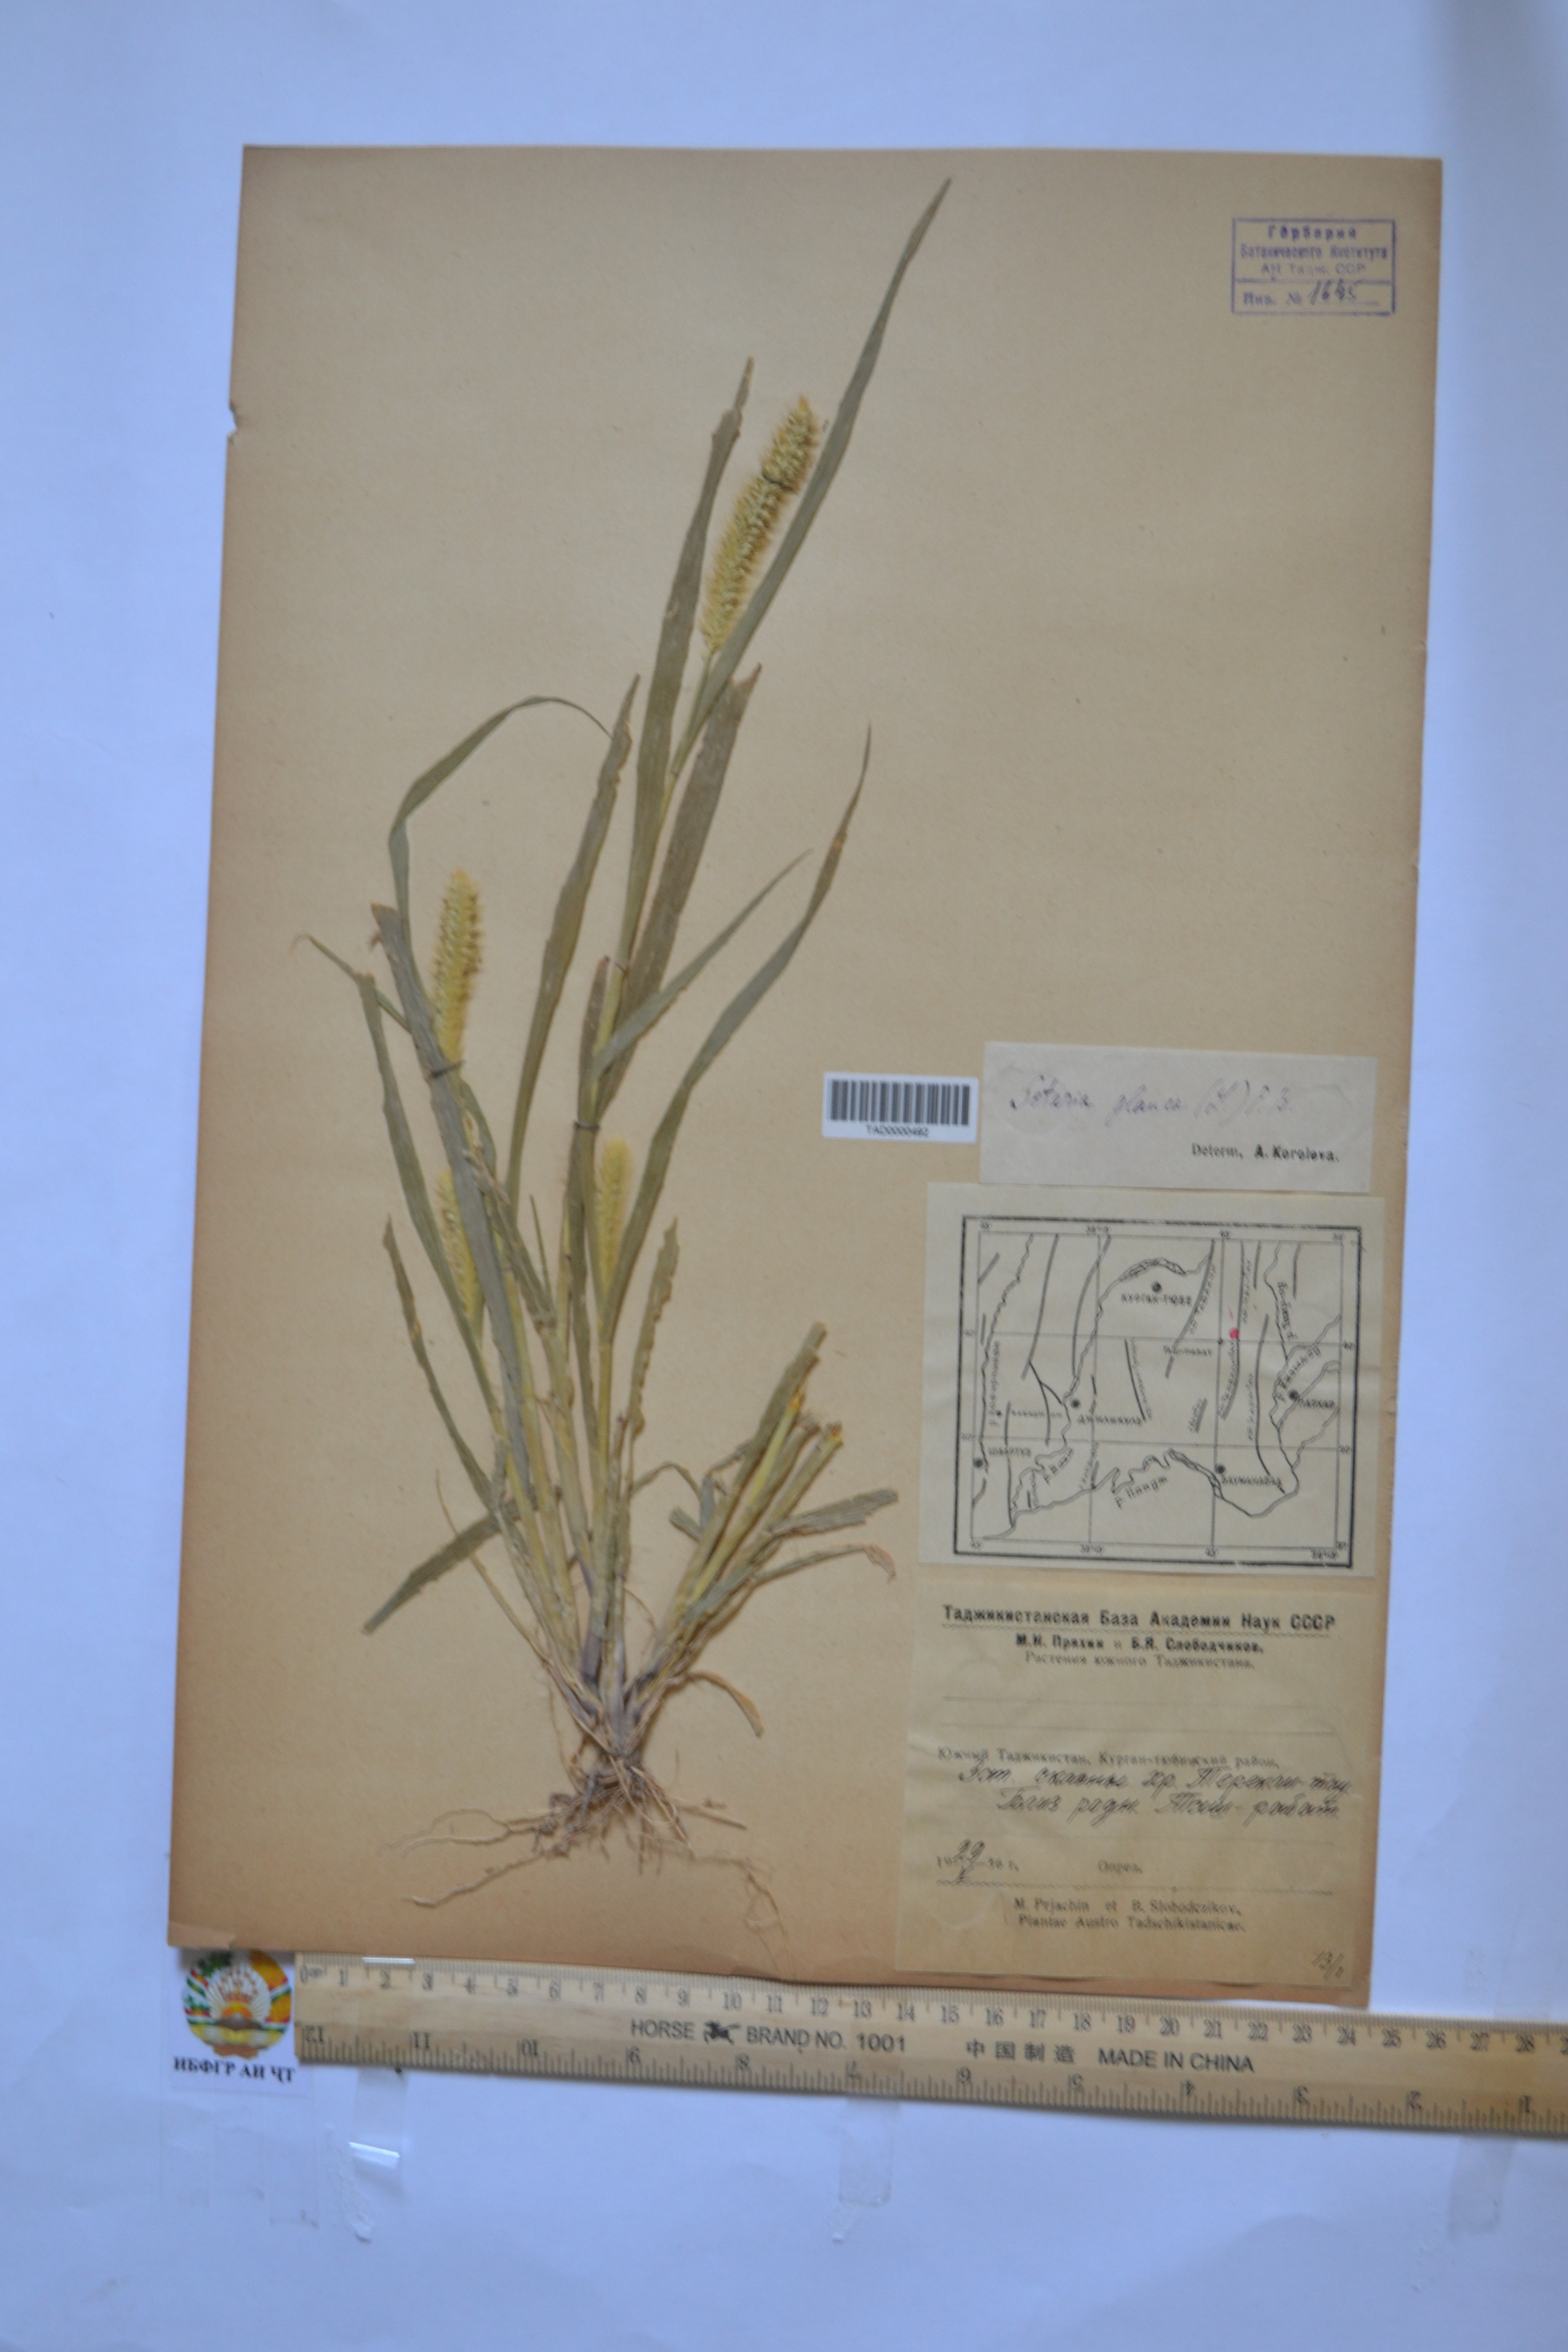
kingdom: Plantae
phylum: Tracheophyta
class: Liliopsida
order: Poales
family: Poaceae
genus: Cenchrus
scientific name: Cenchrus americanus
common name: Pearl millet
